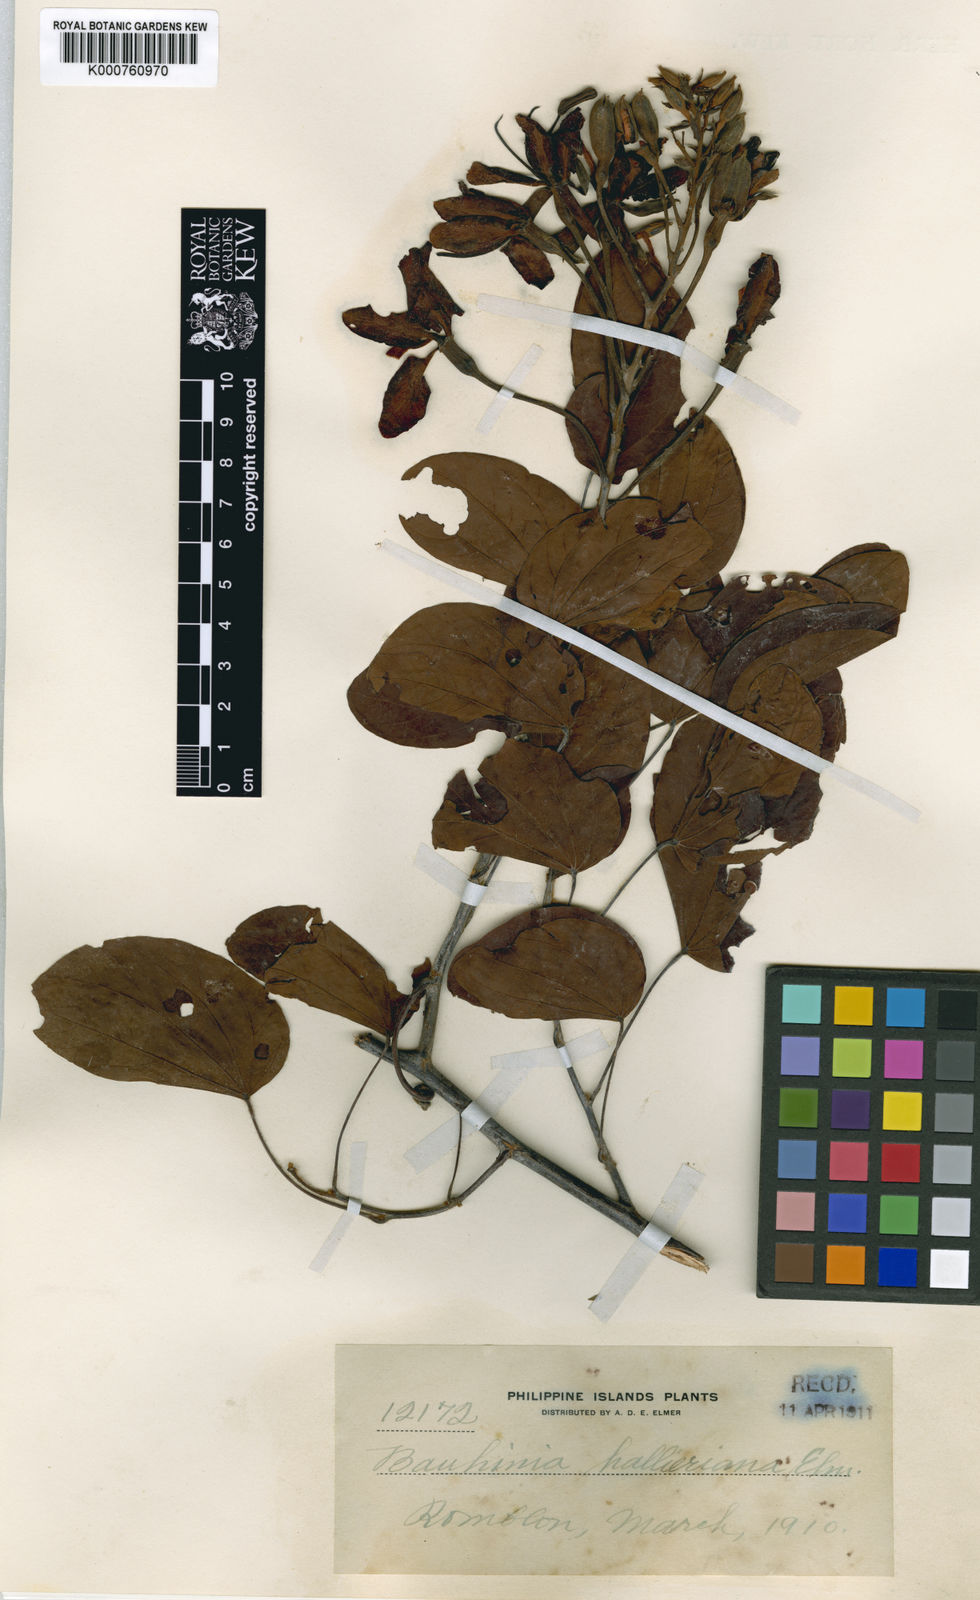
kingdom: Plantae
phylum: Tracheophyta
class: Magnoliopsida
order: Fabales
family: Fabaceae
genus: Phanera
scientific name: Phanera aherniana
